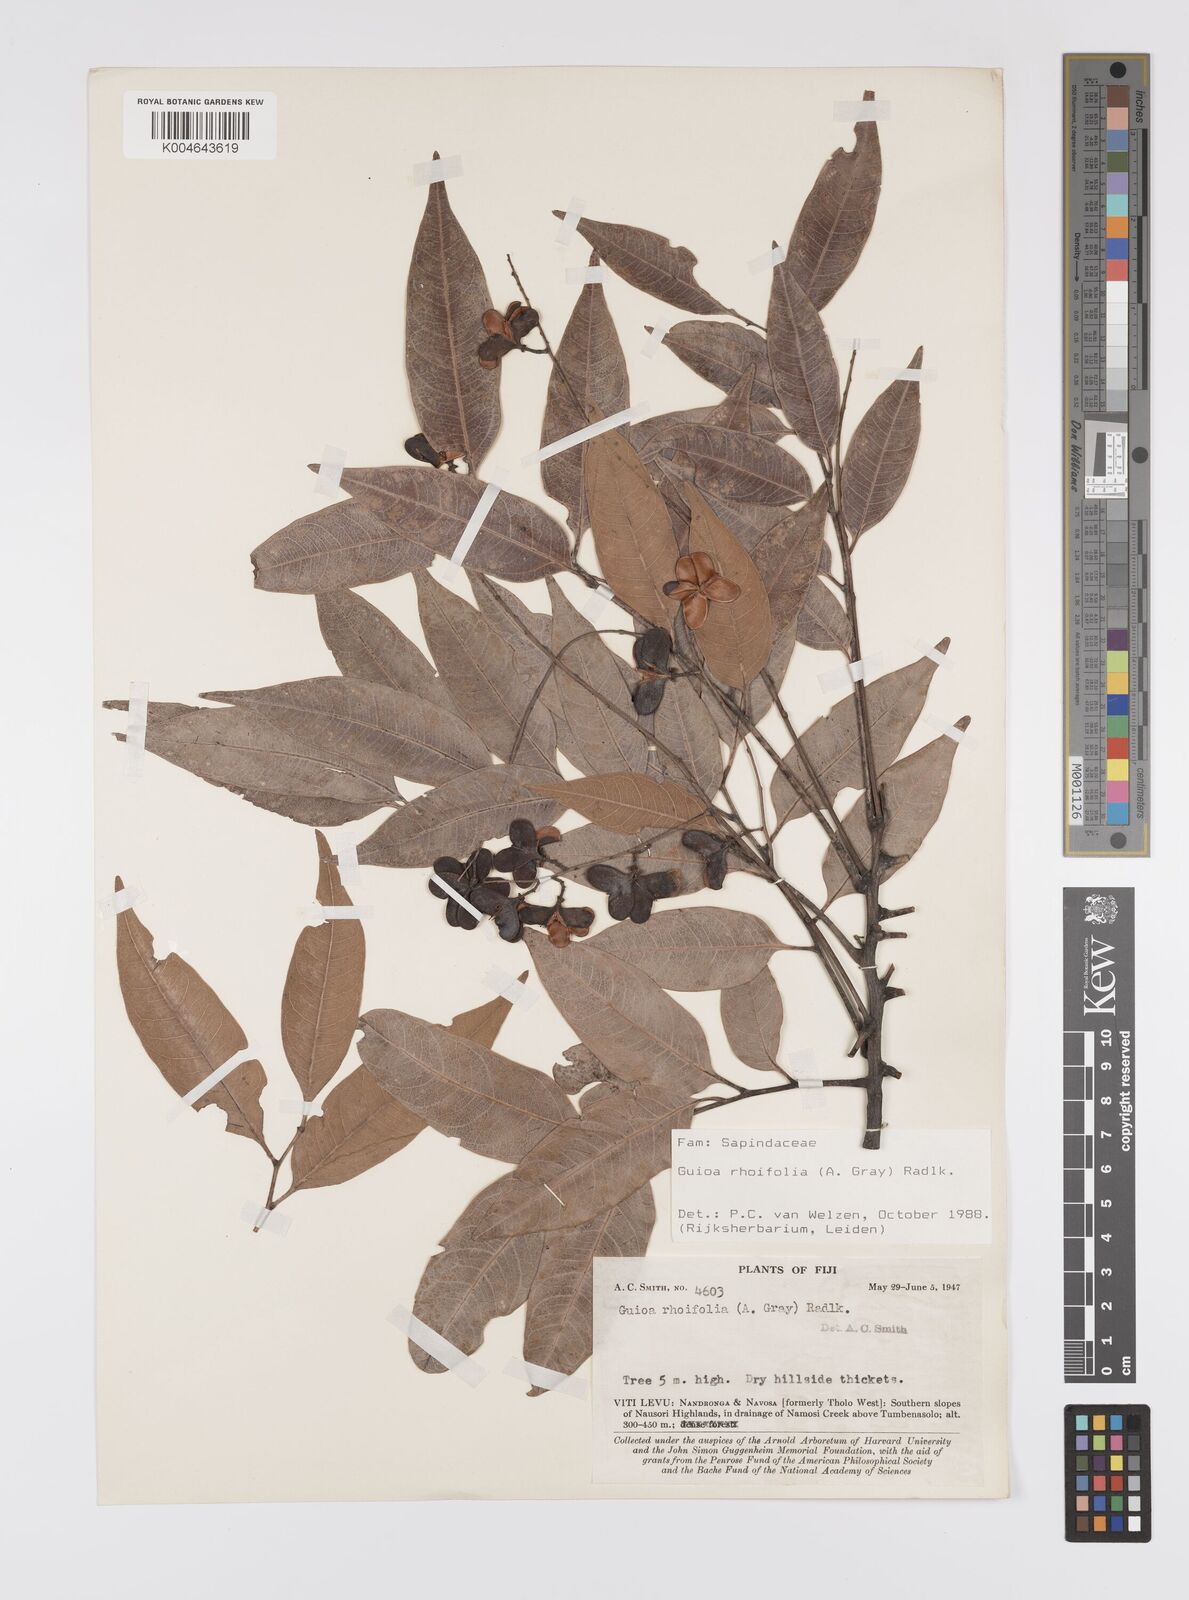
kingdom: Plantae
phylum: Tracheophyta
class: Magnoliopsida
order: Sapindales
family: Sapindaceae
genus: Guioa
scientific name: Guioa rhoifolia
